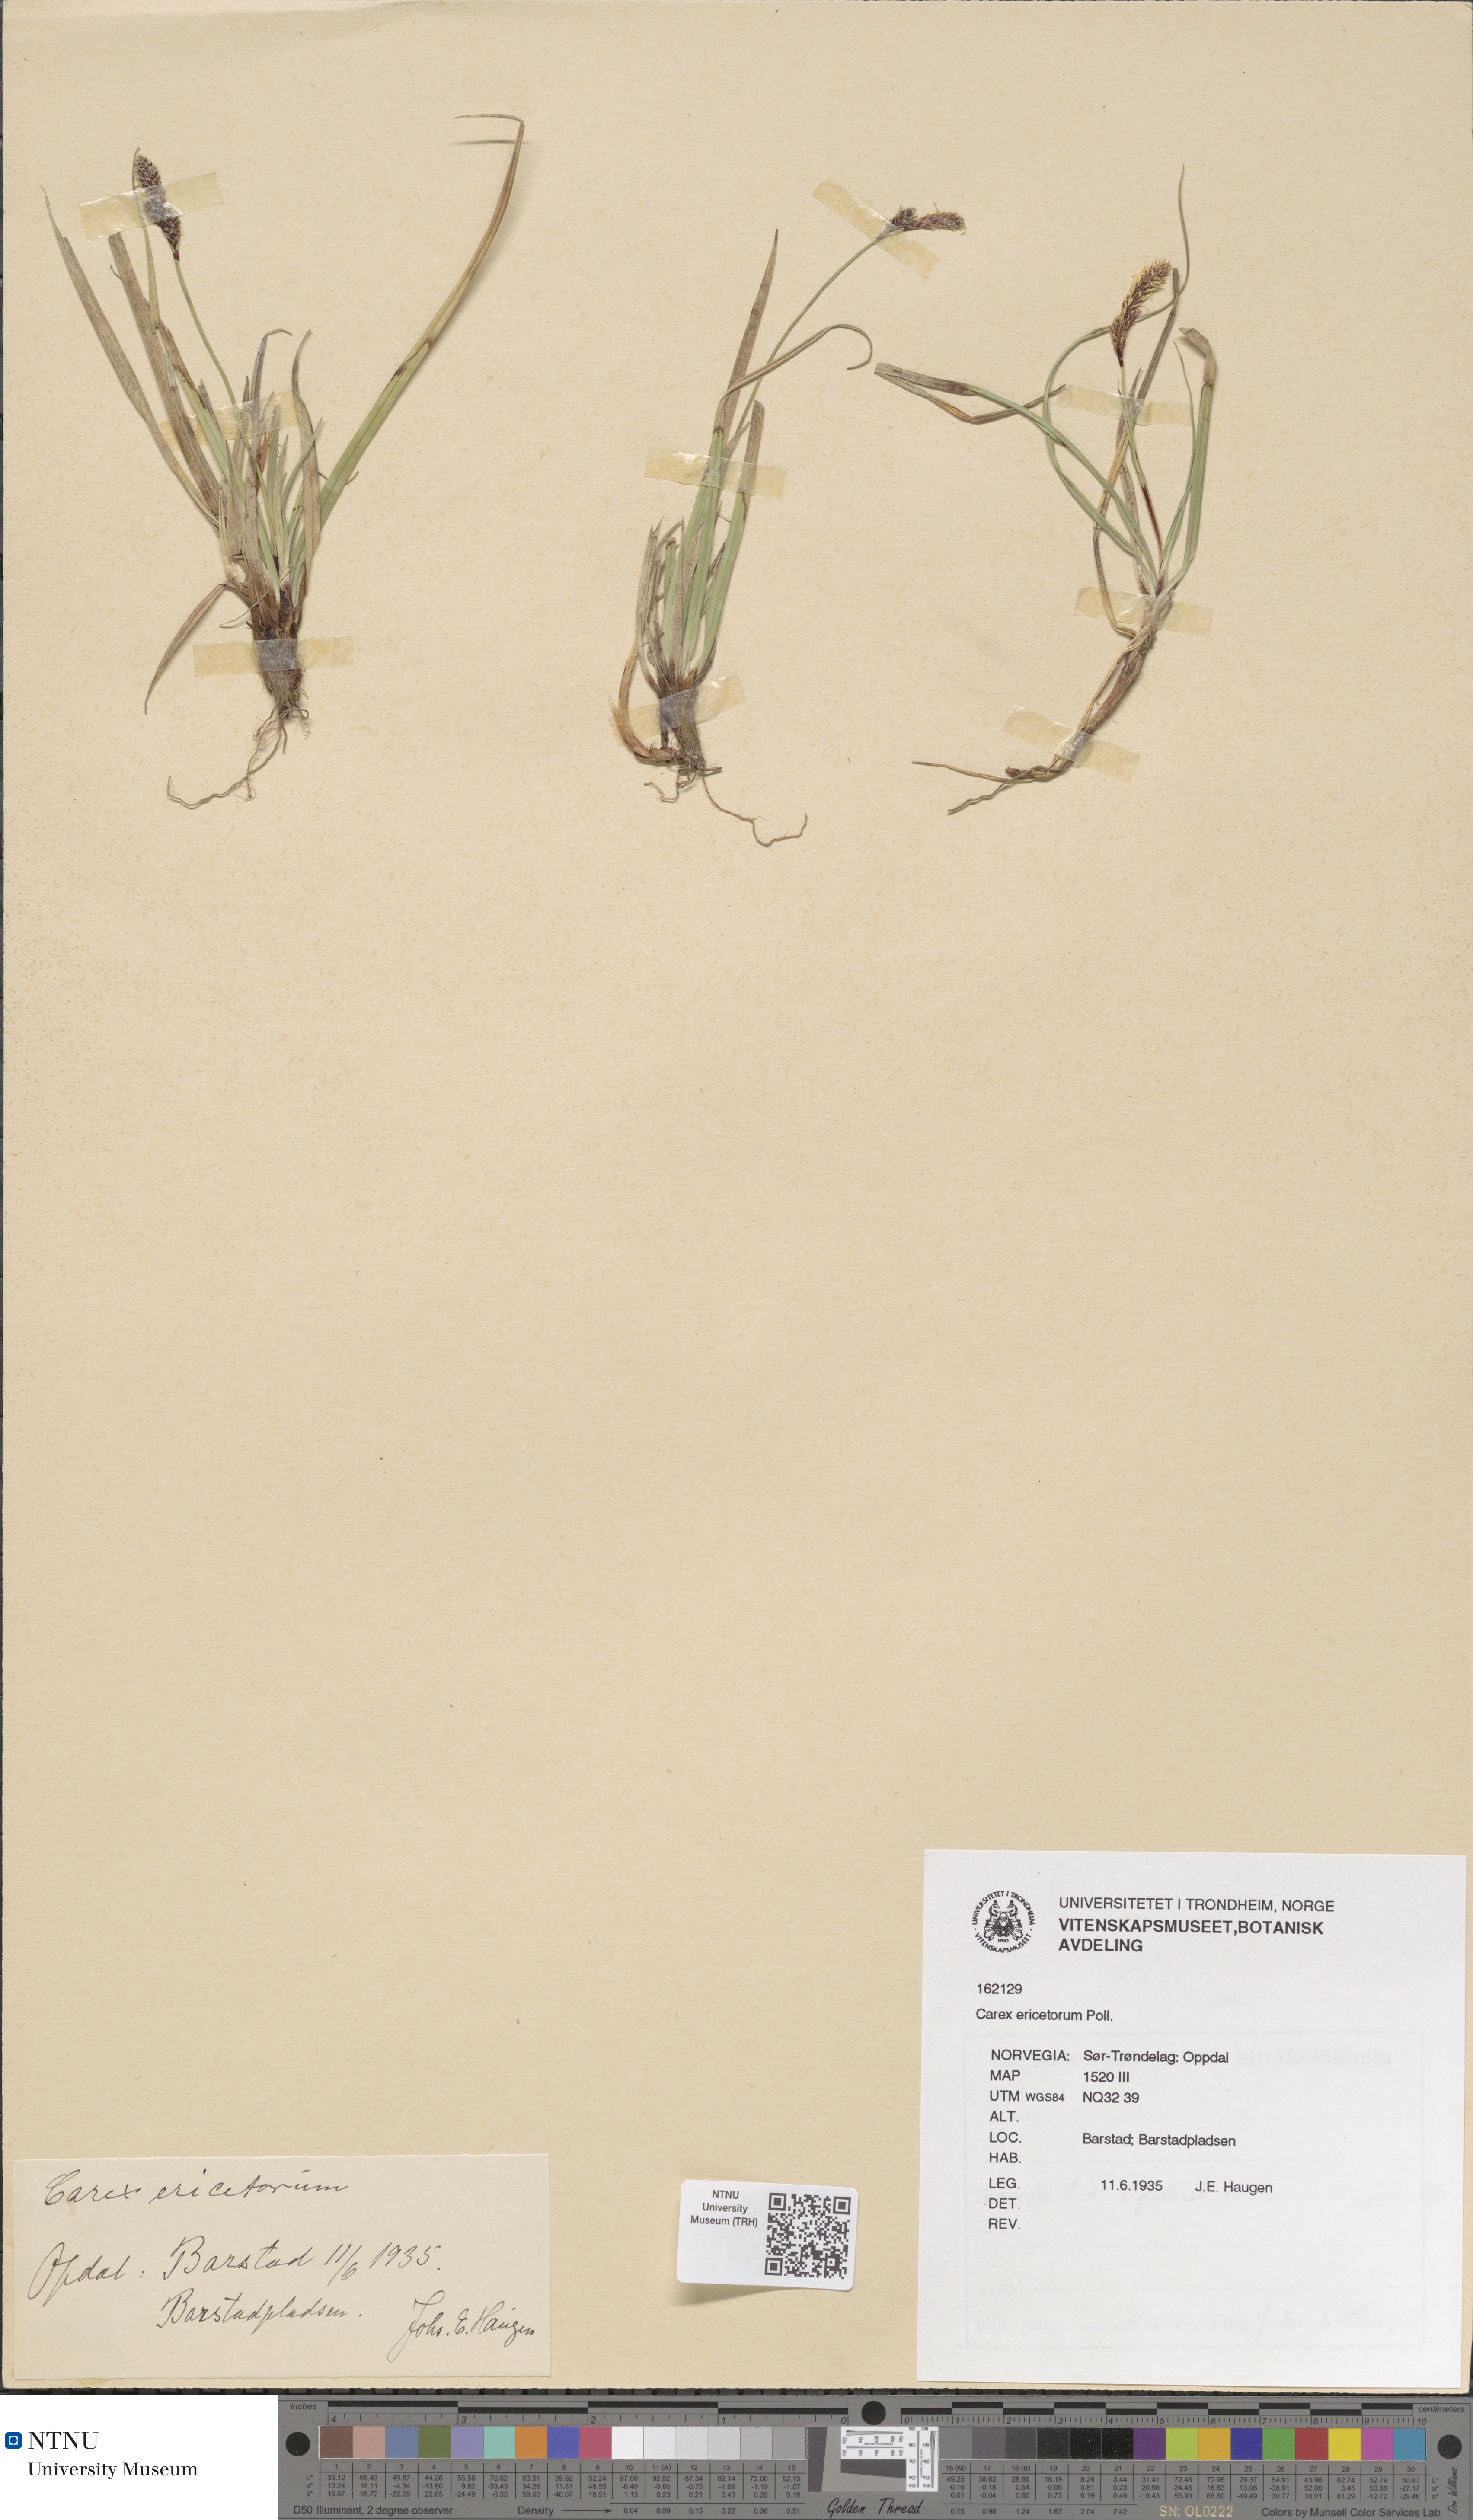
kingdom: Plantae
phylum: Tracheophyta
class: Liliopsida
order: Poales
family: Cyperaceae
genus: Carex
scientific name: Carex ericetorum
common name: Rare spring-sedge
